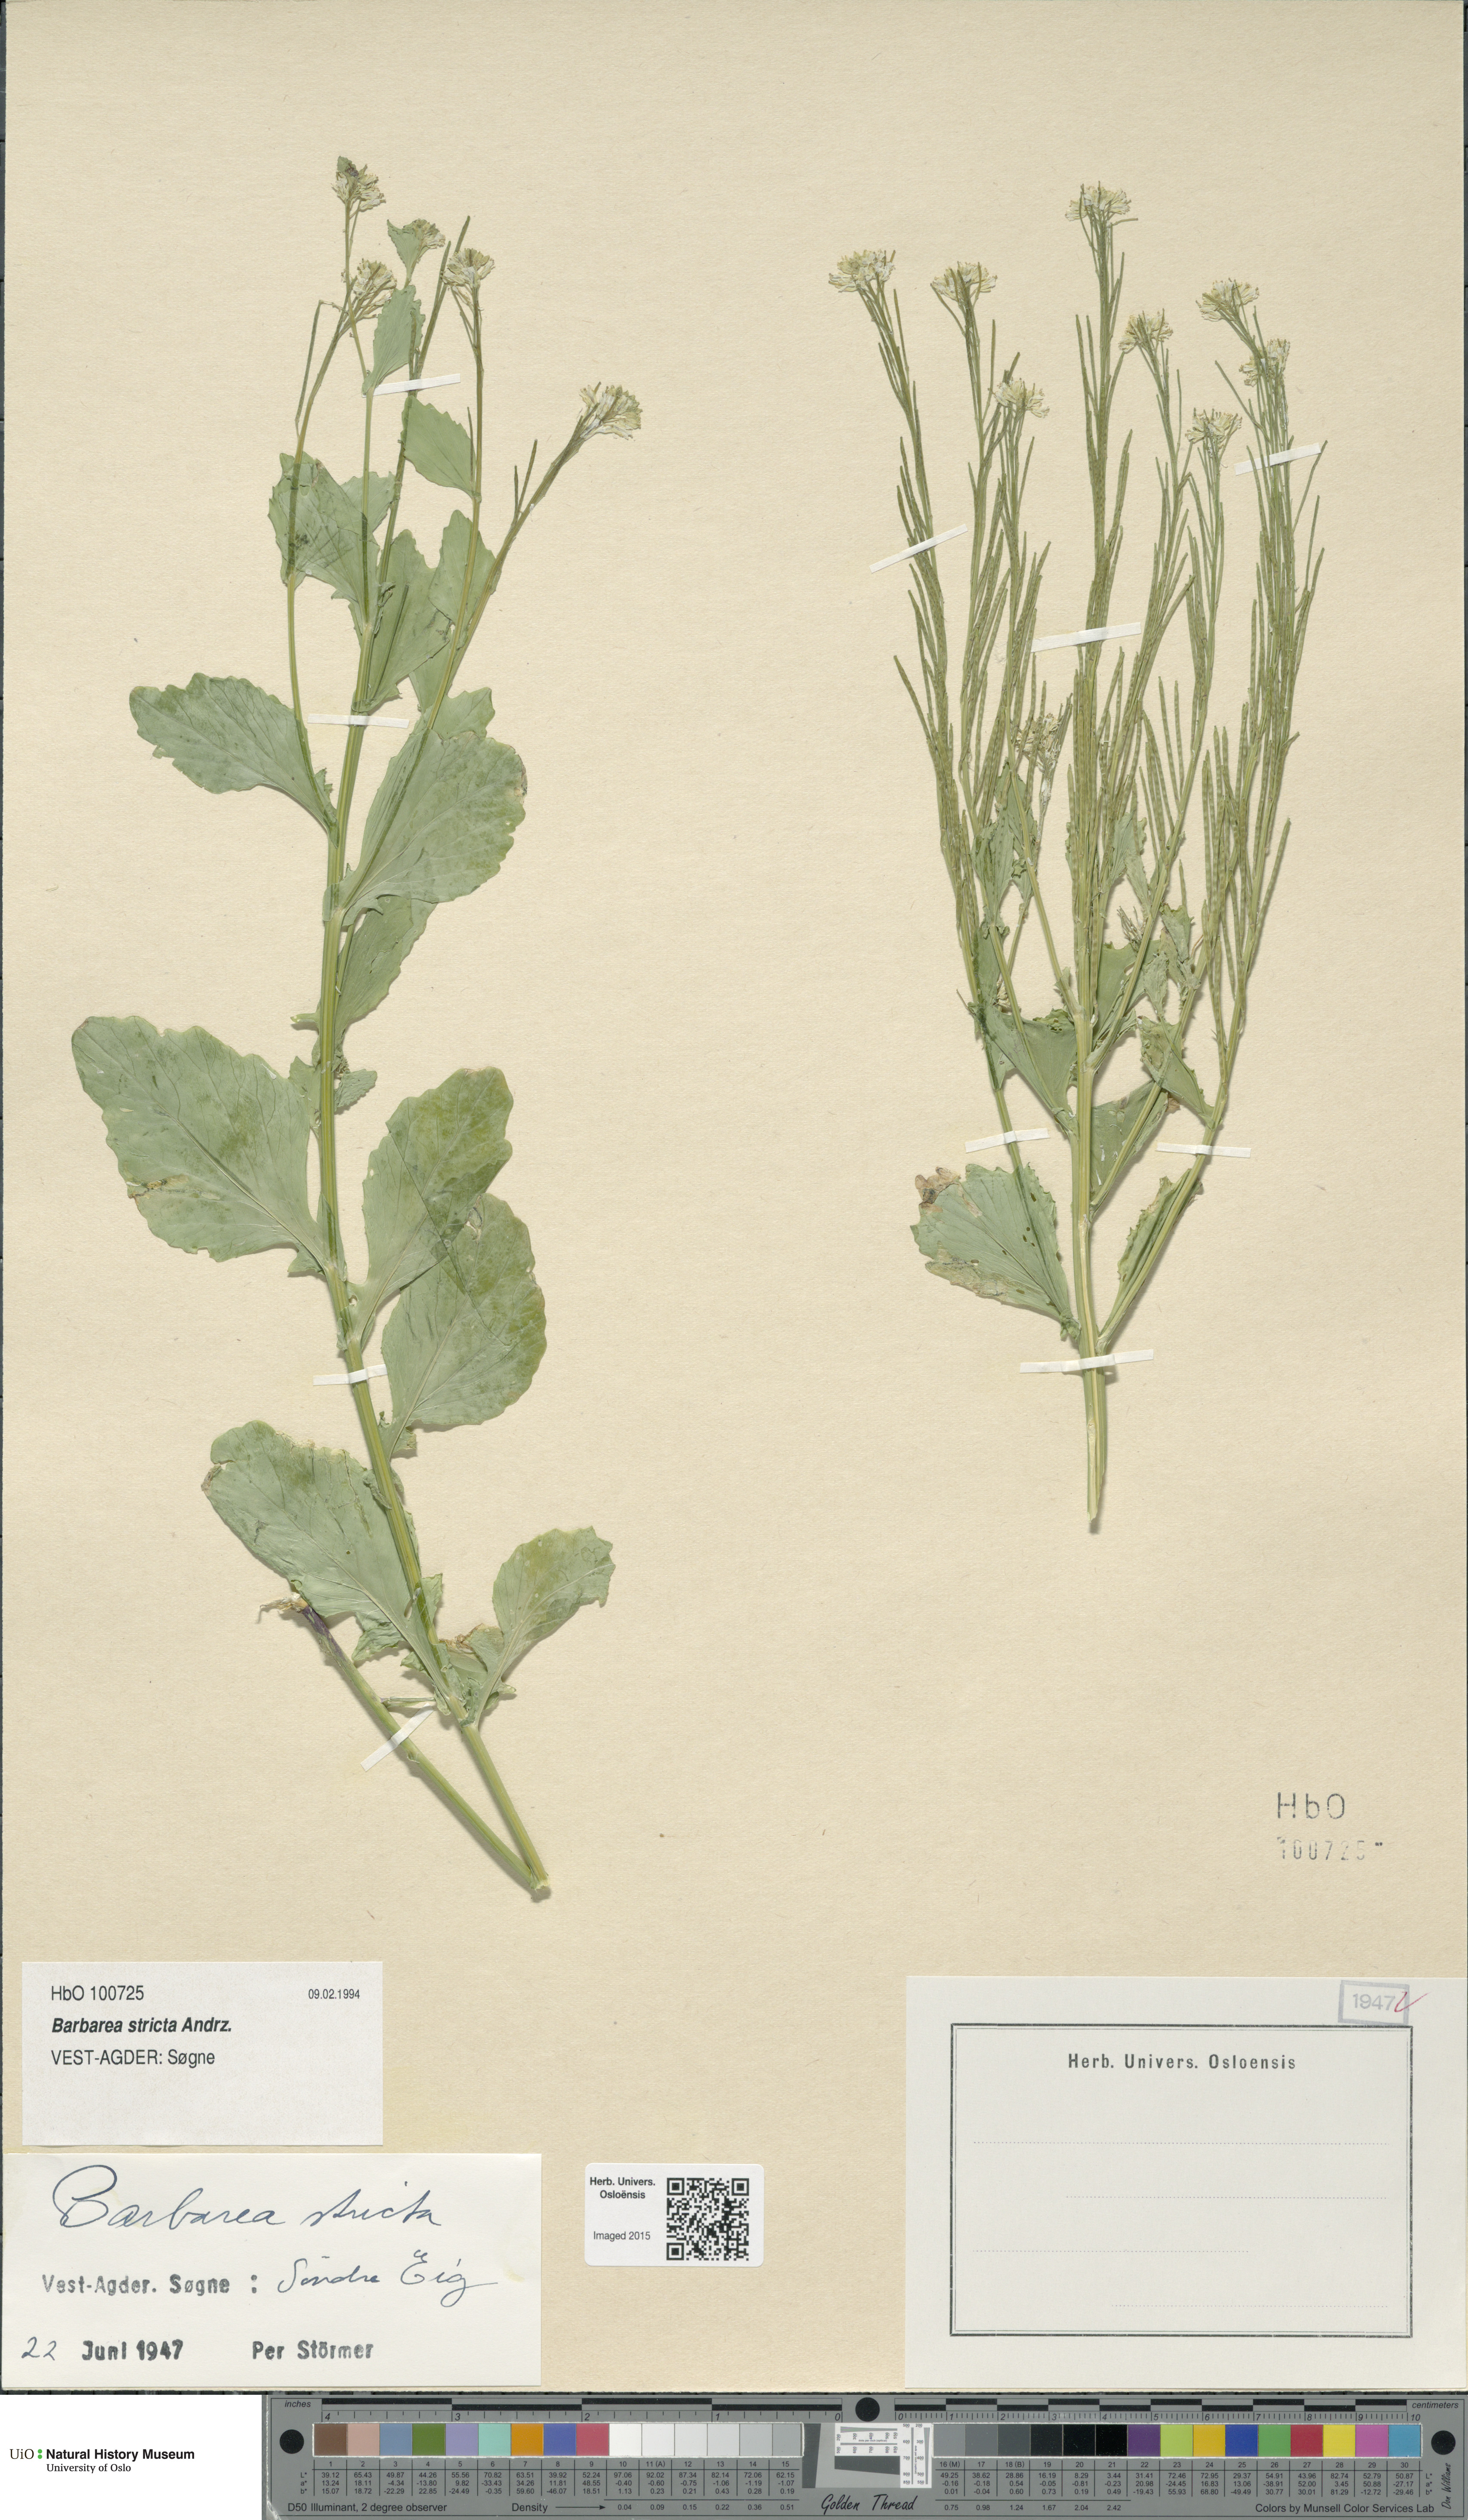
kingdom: Plantae
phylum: Tracheophyta
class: Magnoliopsida
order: Brassicales
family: Brassicaceae
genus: Barbarea
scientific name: Barbarea stricta
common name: Small-flowered winter-cress
